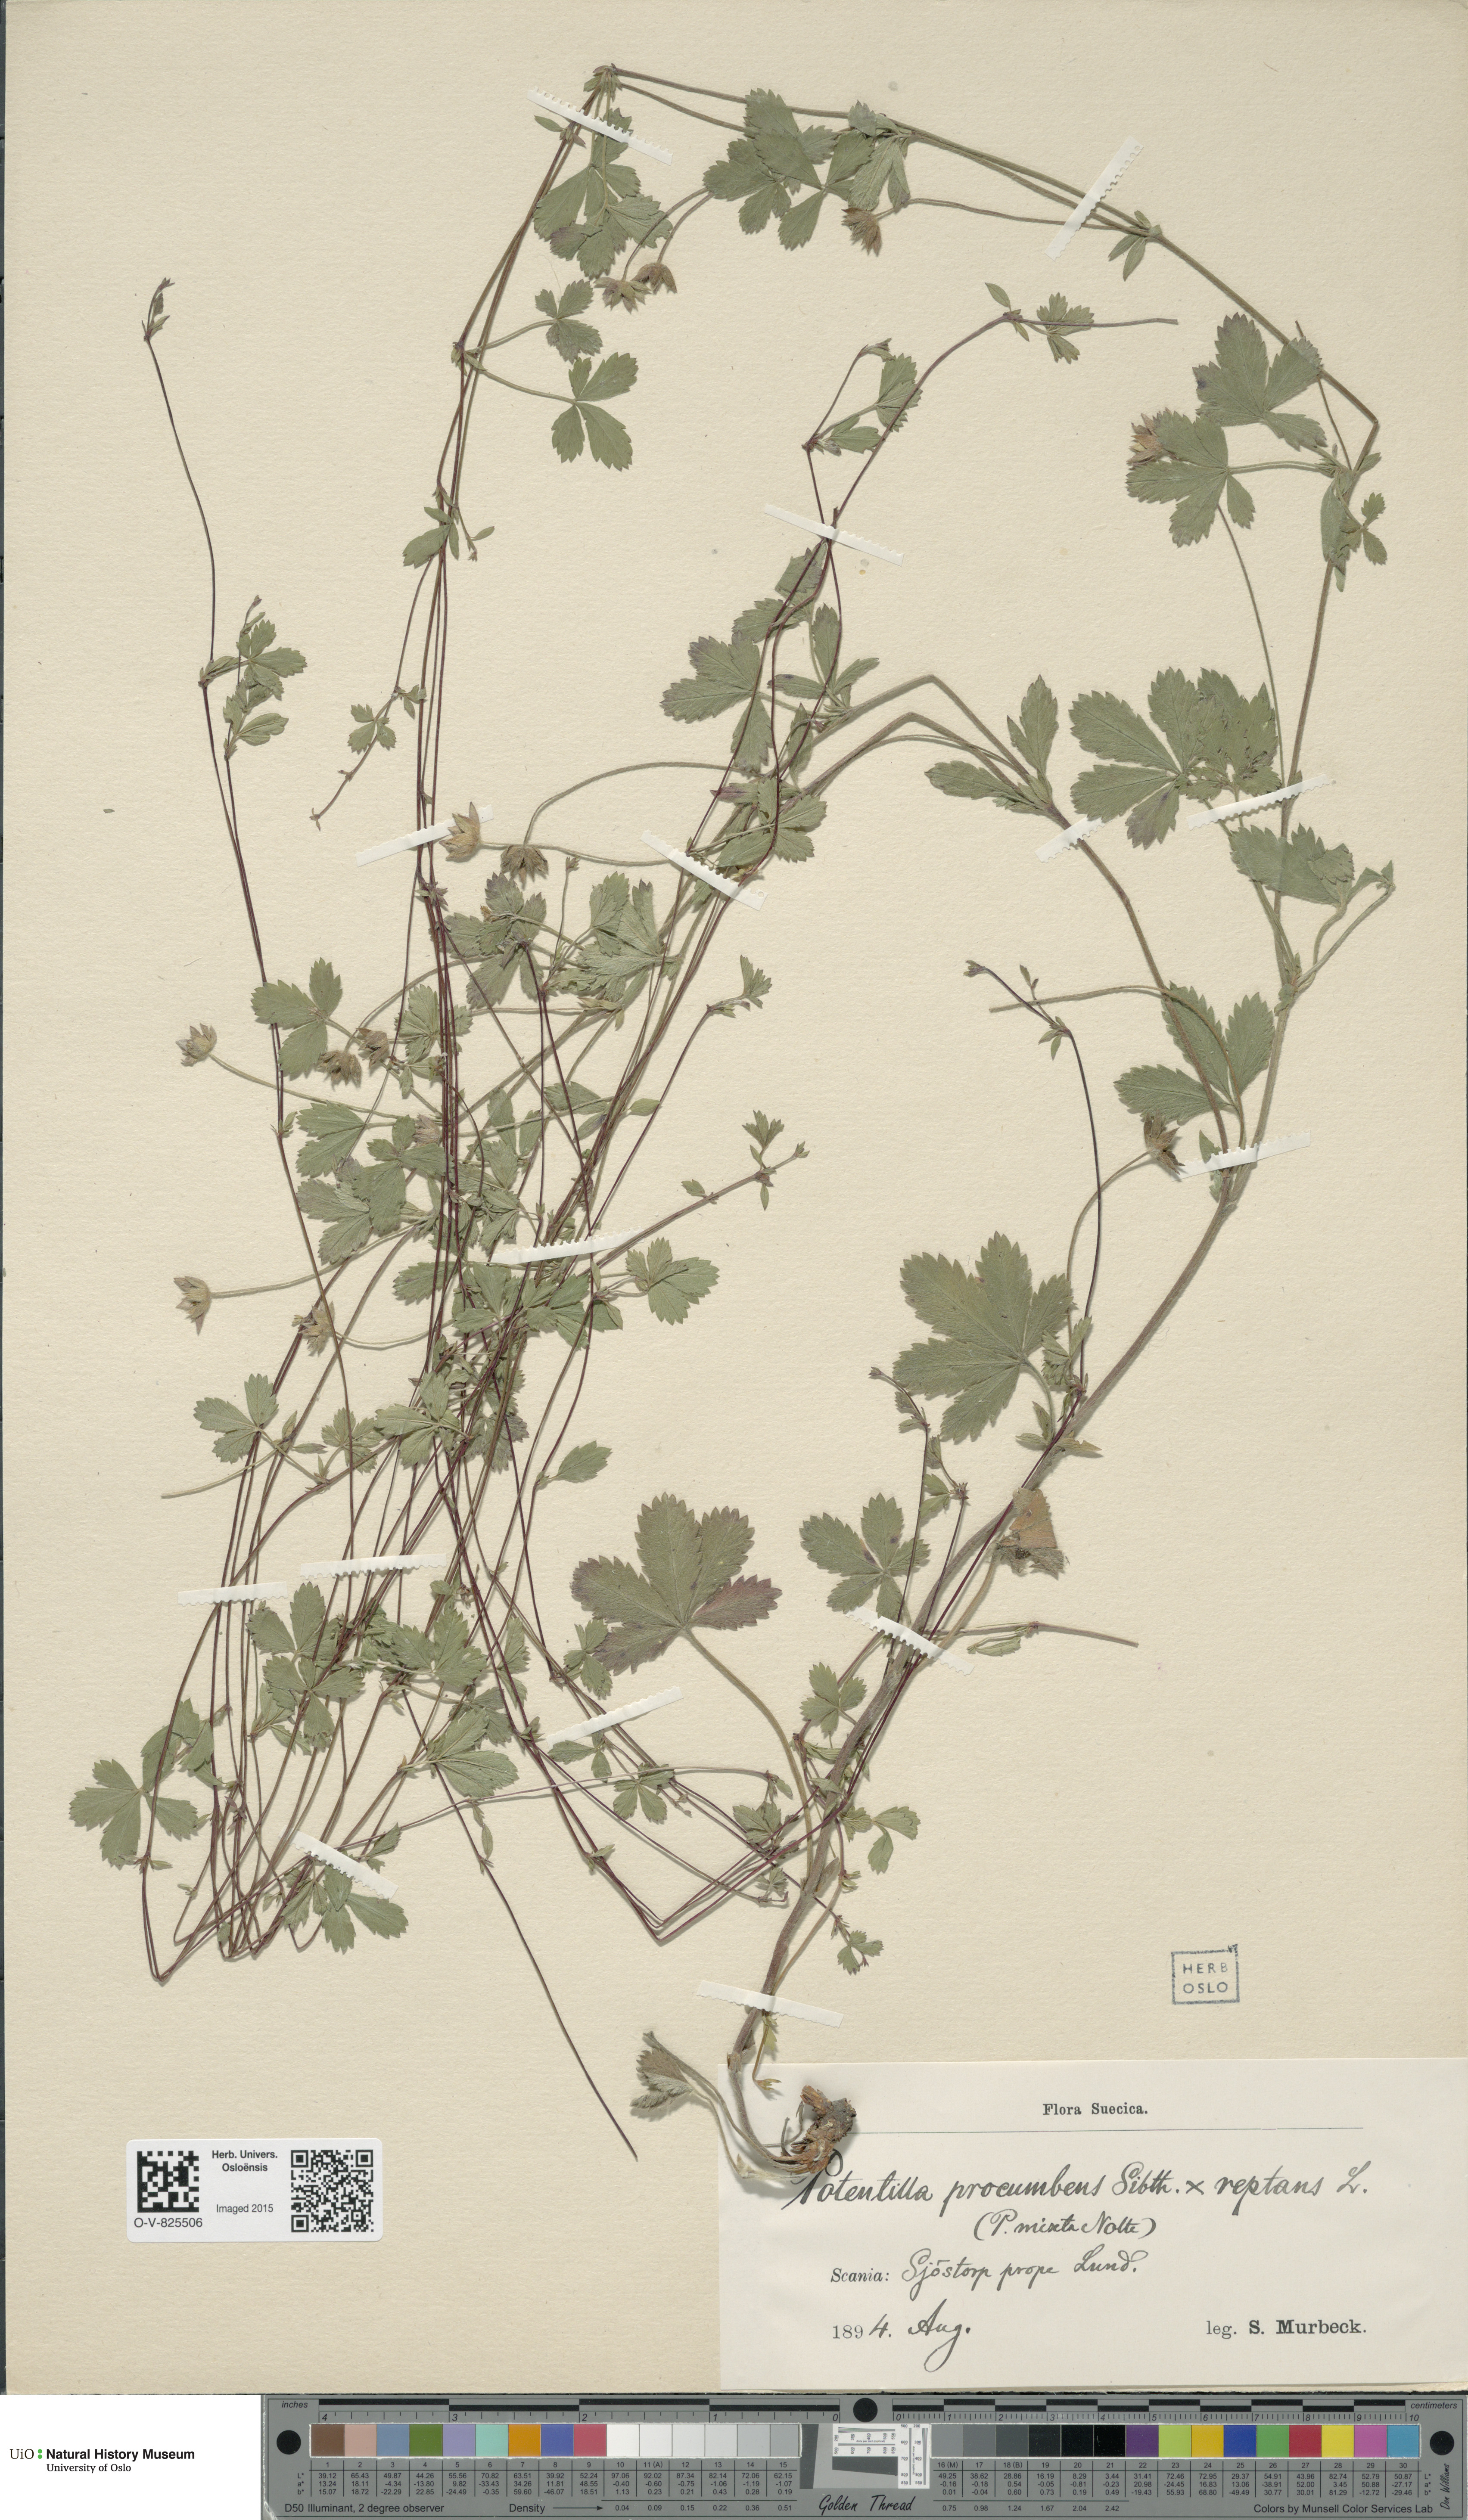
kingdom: Plantae
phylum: Tracheophyta
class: Magnoliopsida
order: Rosales
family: Rosaceae
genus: Potentilla
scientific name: Potentilla
